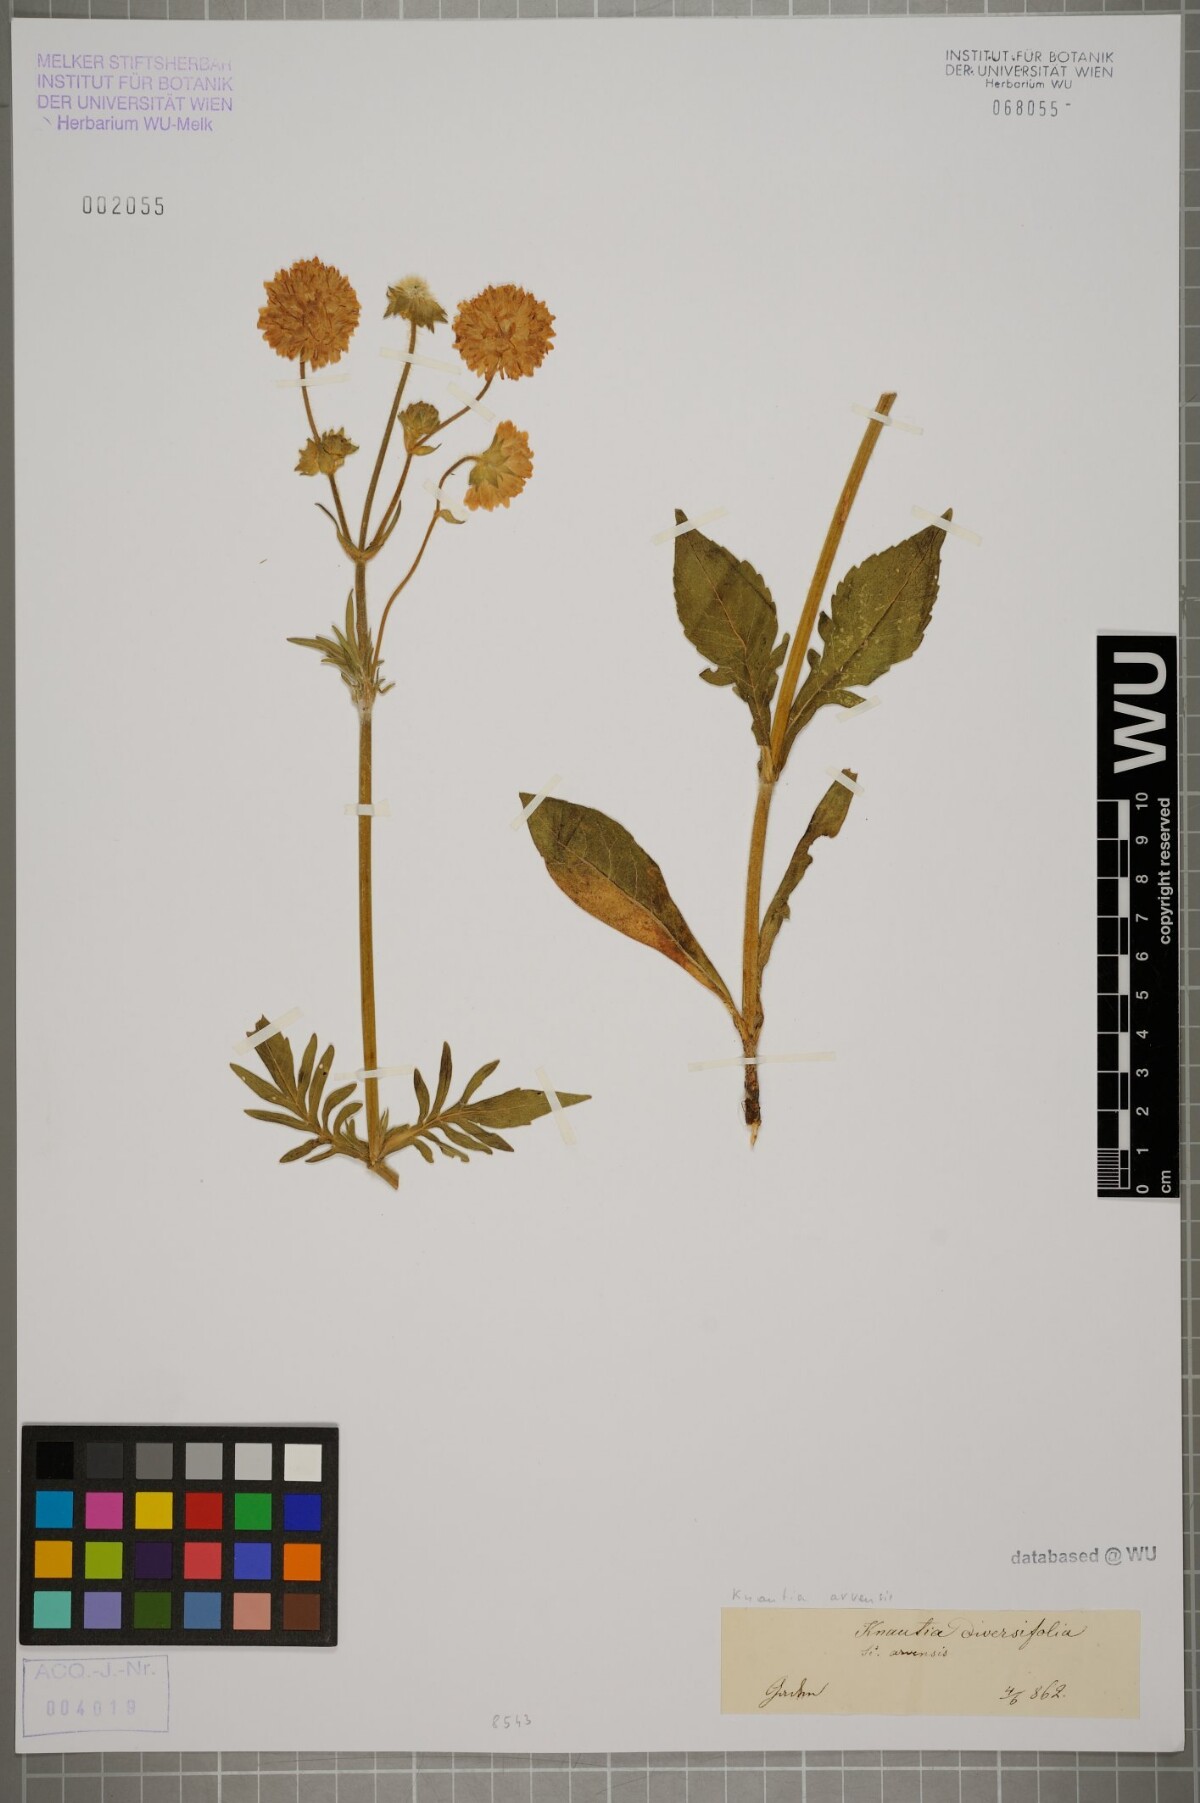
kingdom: Plantae
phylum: Tracheophyta
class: Magnoliopsida
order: Dipsacales
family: Caprifoliaceae
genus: Knautia
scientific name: Knautia arvensis
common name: Field scabiosa
